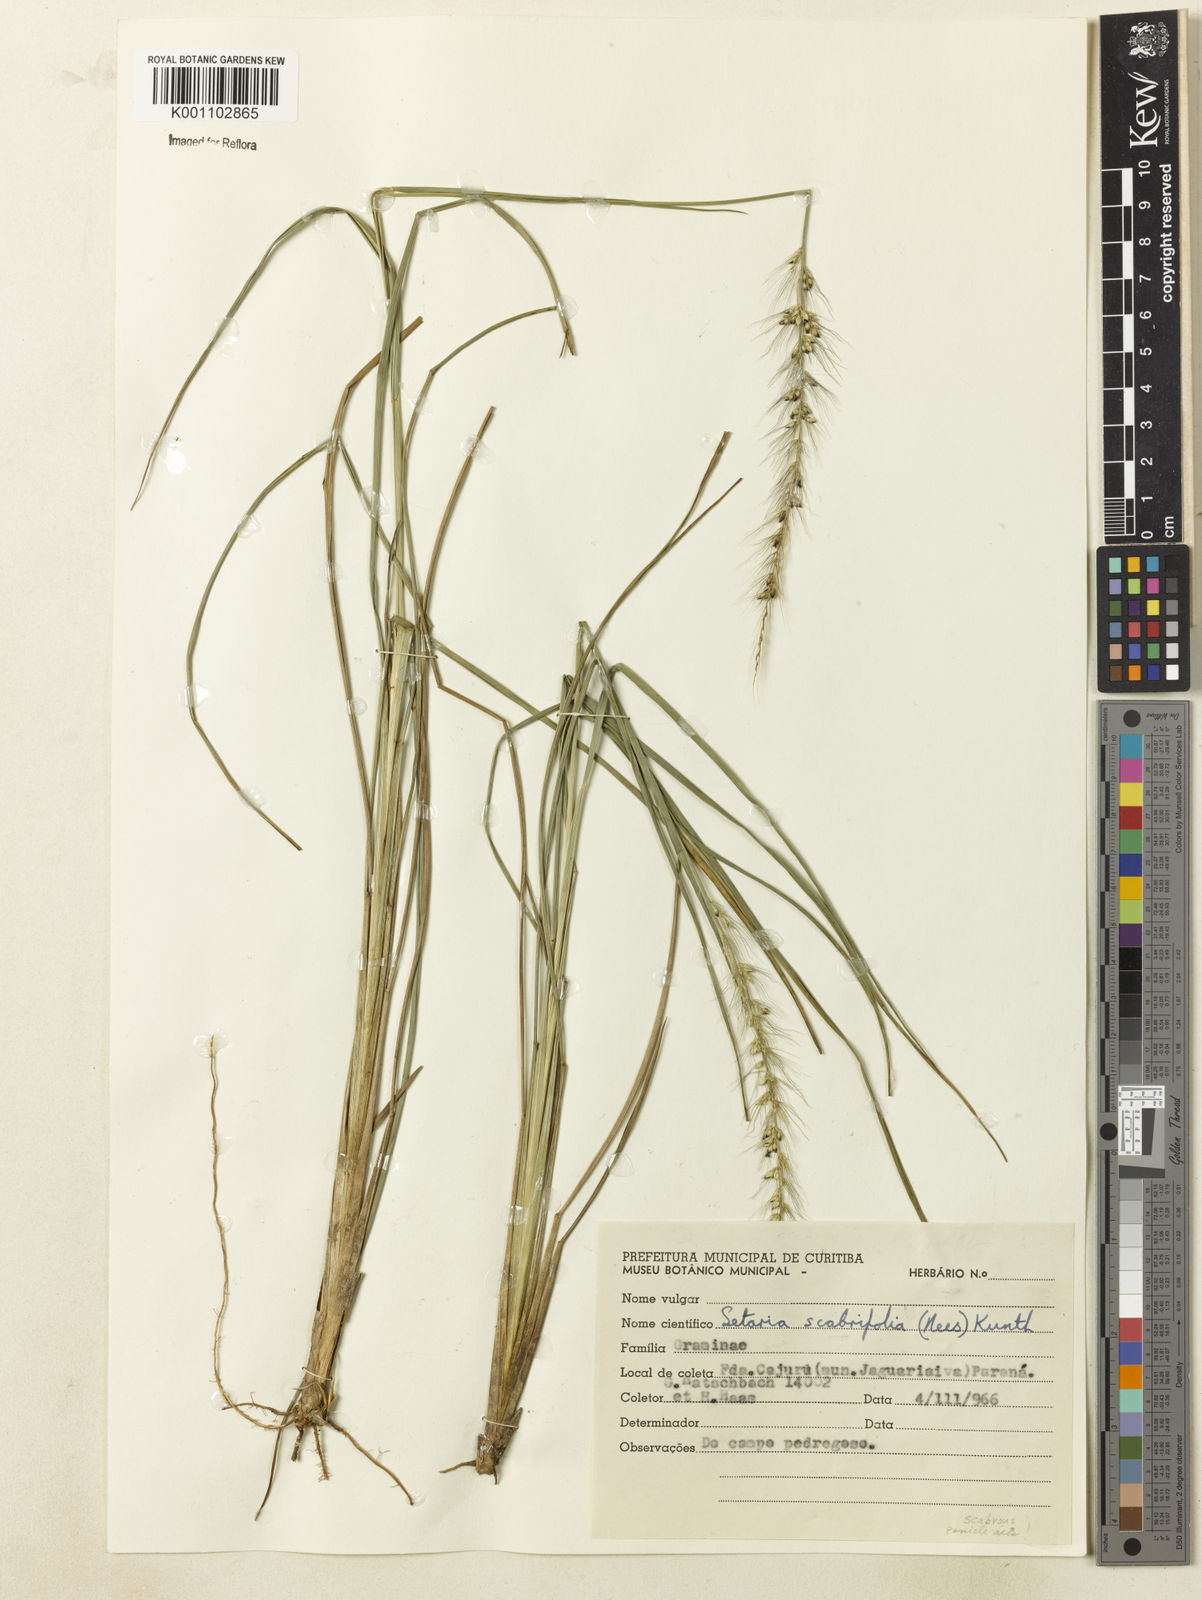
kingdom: Plantae
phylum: Tracheophyta
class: Liliopsida
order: Poales
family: Poaceae
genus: Setaria
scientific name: Setaria scabrifolia
